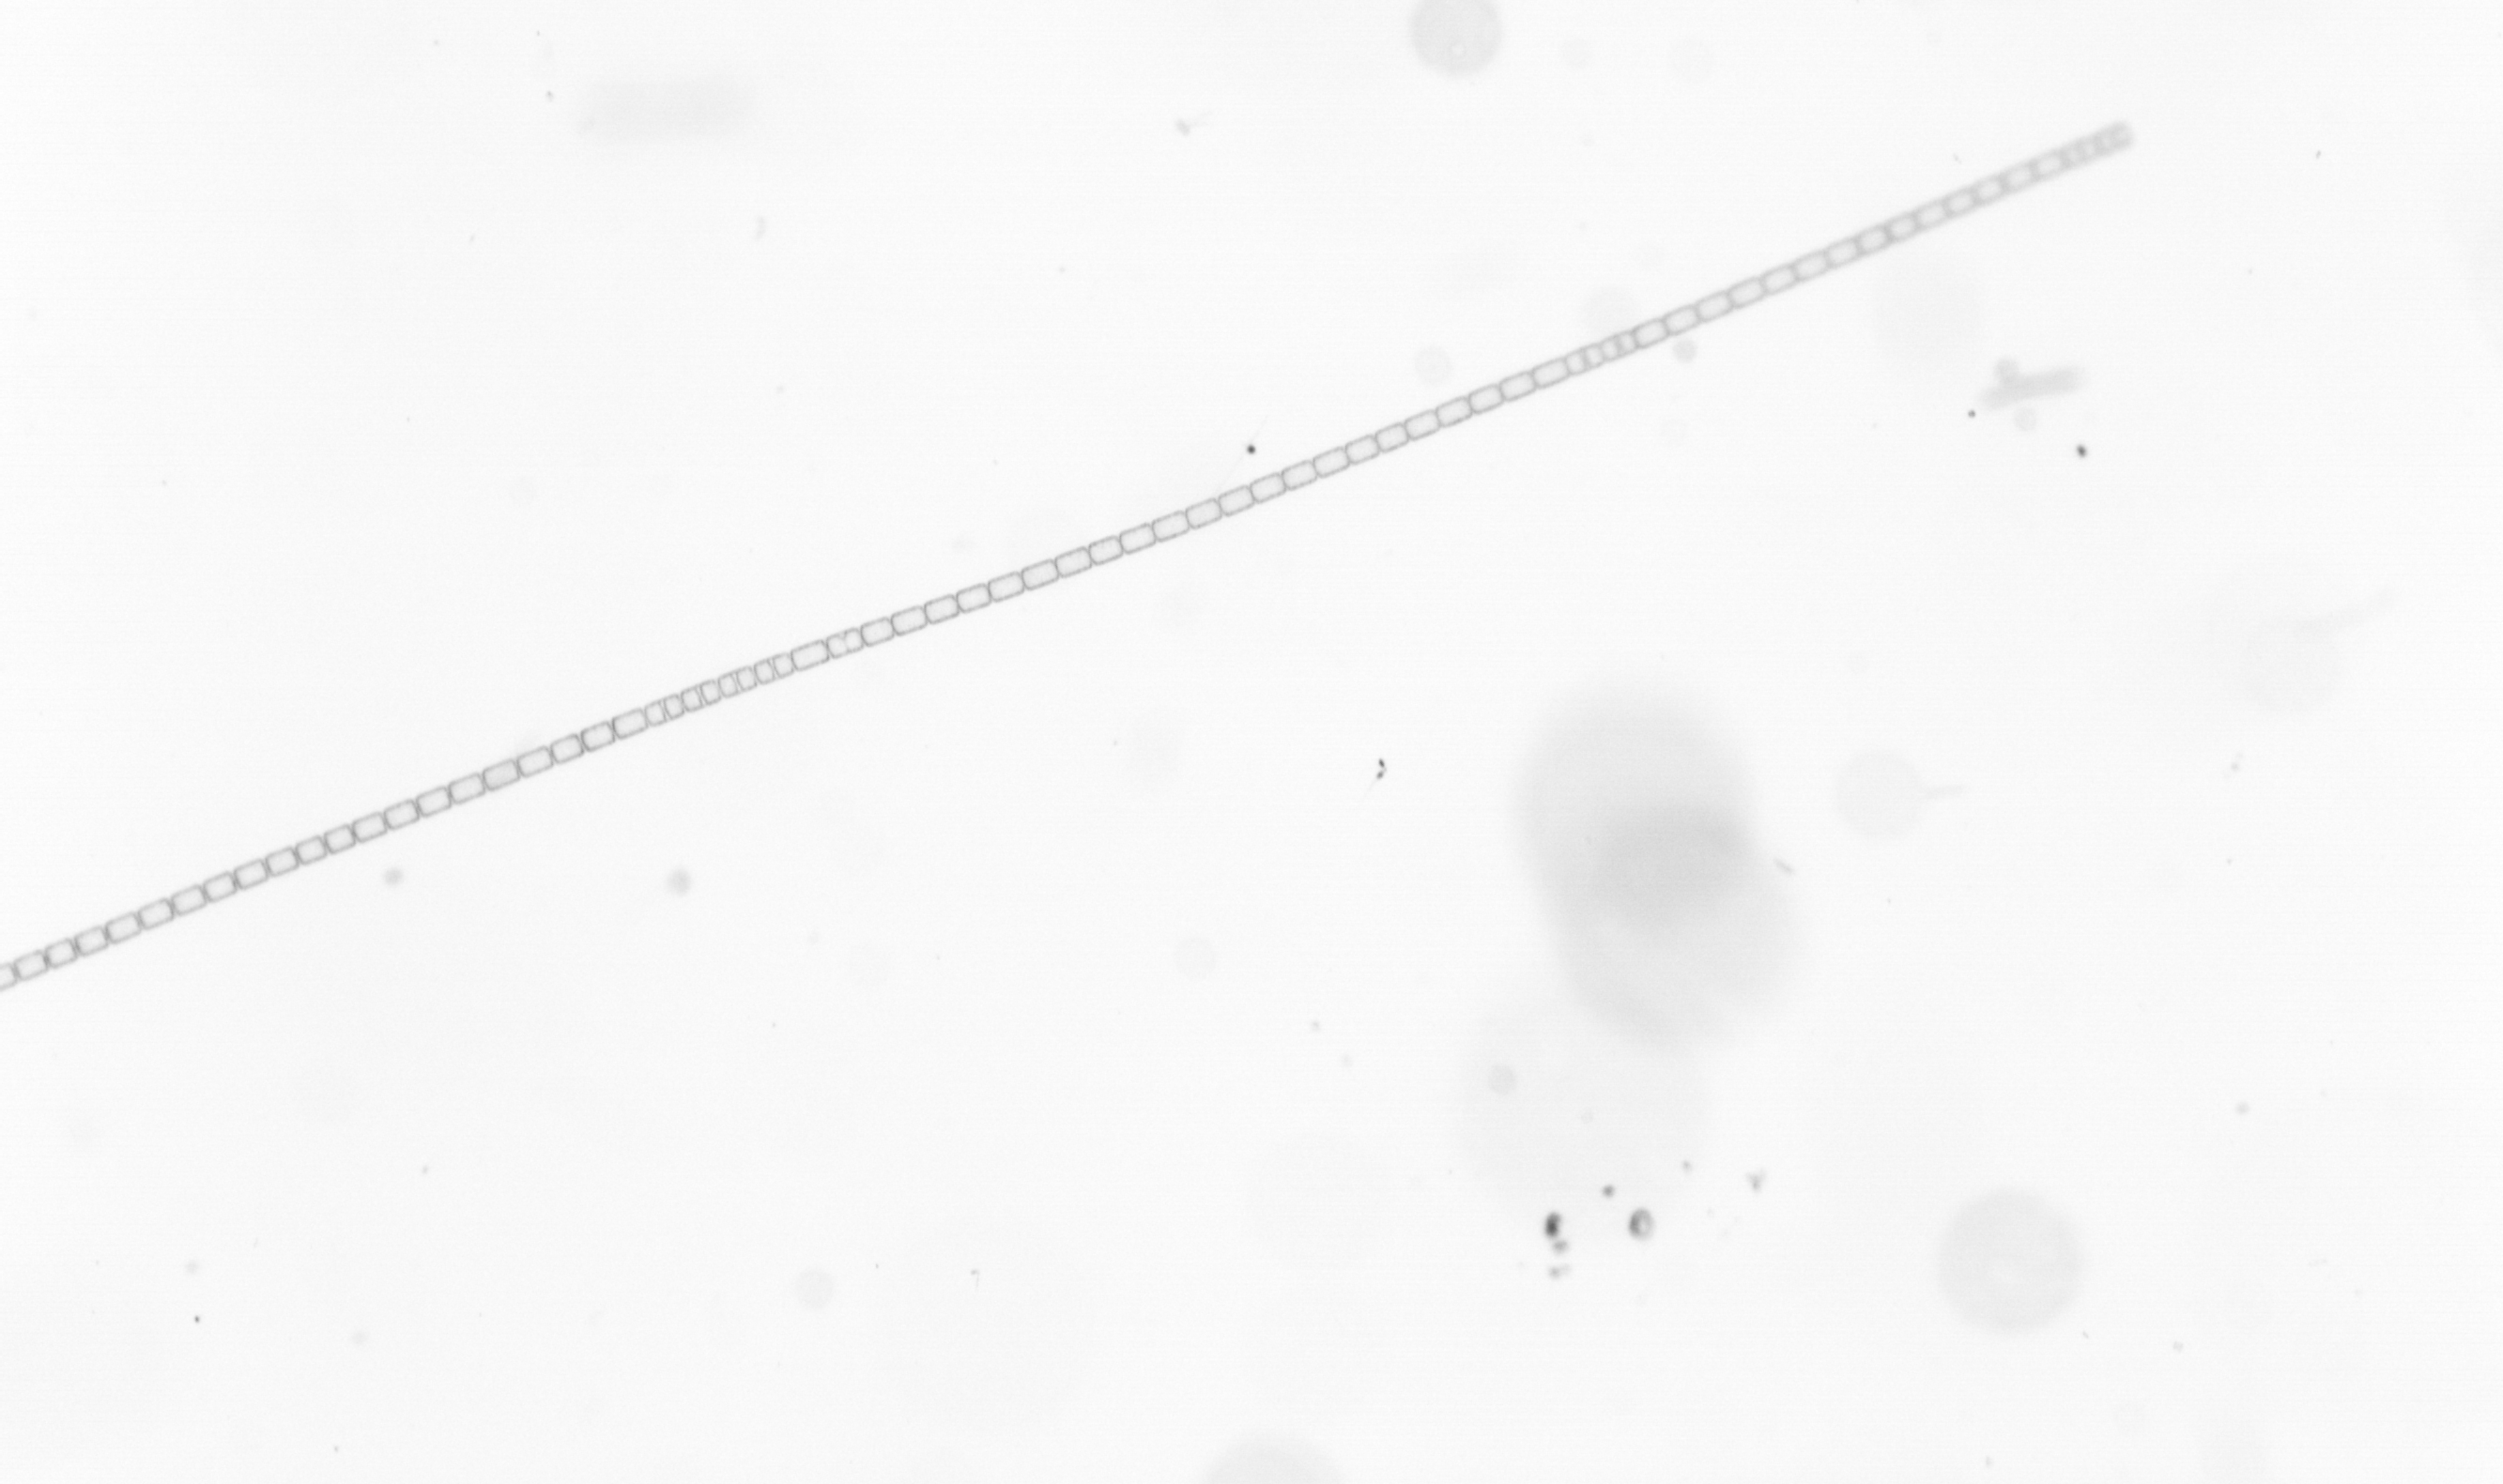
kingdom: Chromista
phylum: Ochrophyta
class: Bacillariophyceae
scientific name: Bacillariophyceae
